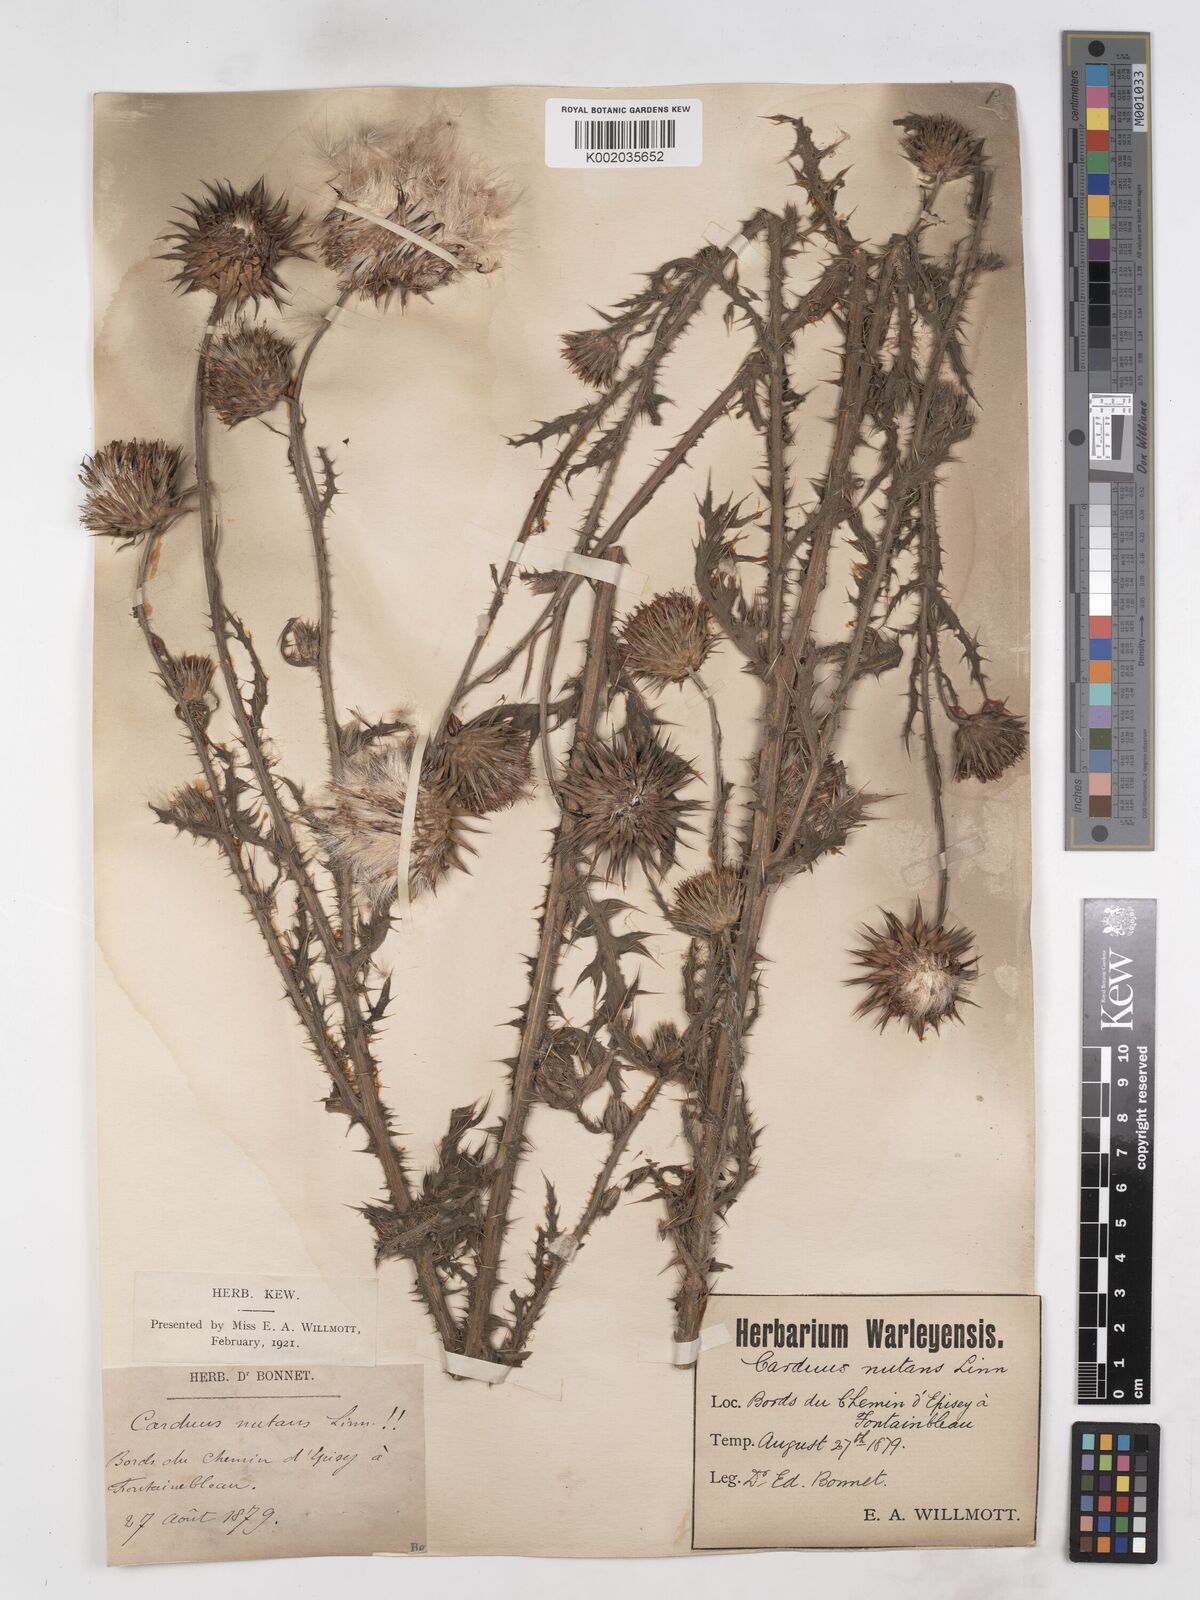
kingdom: Plantae
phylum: Tracheophyta
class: Magnoliopsida
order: Asterales
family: Asteraceae
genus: Carduus
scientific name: Carduus nutans
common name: Musk thistle
